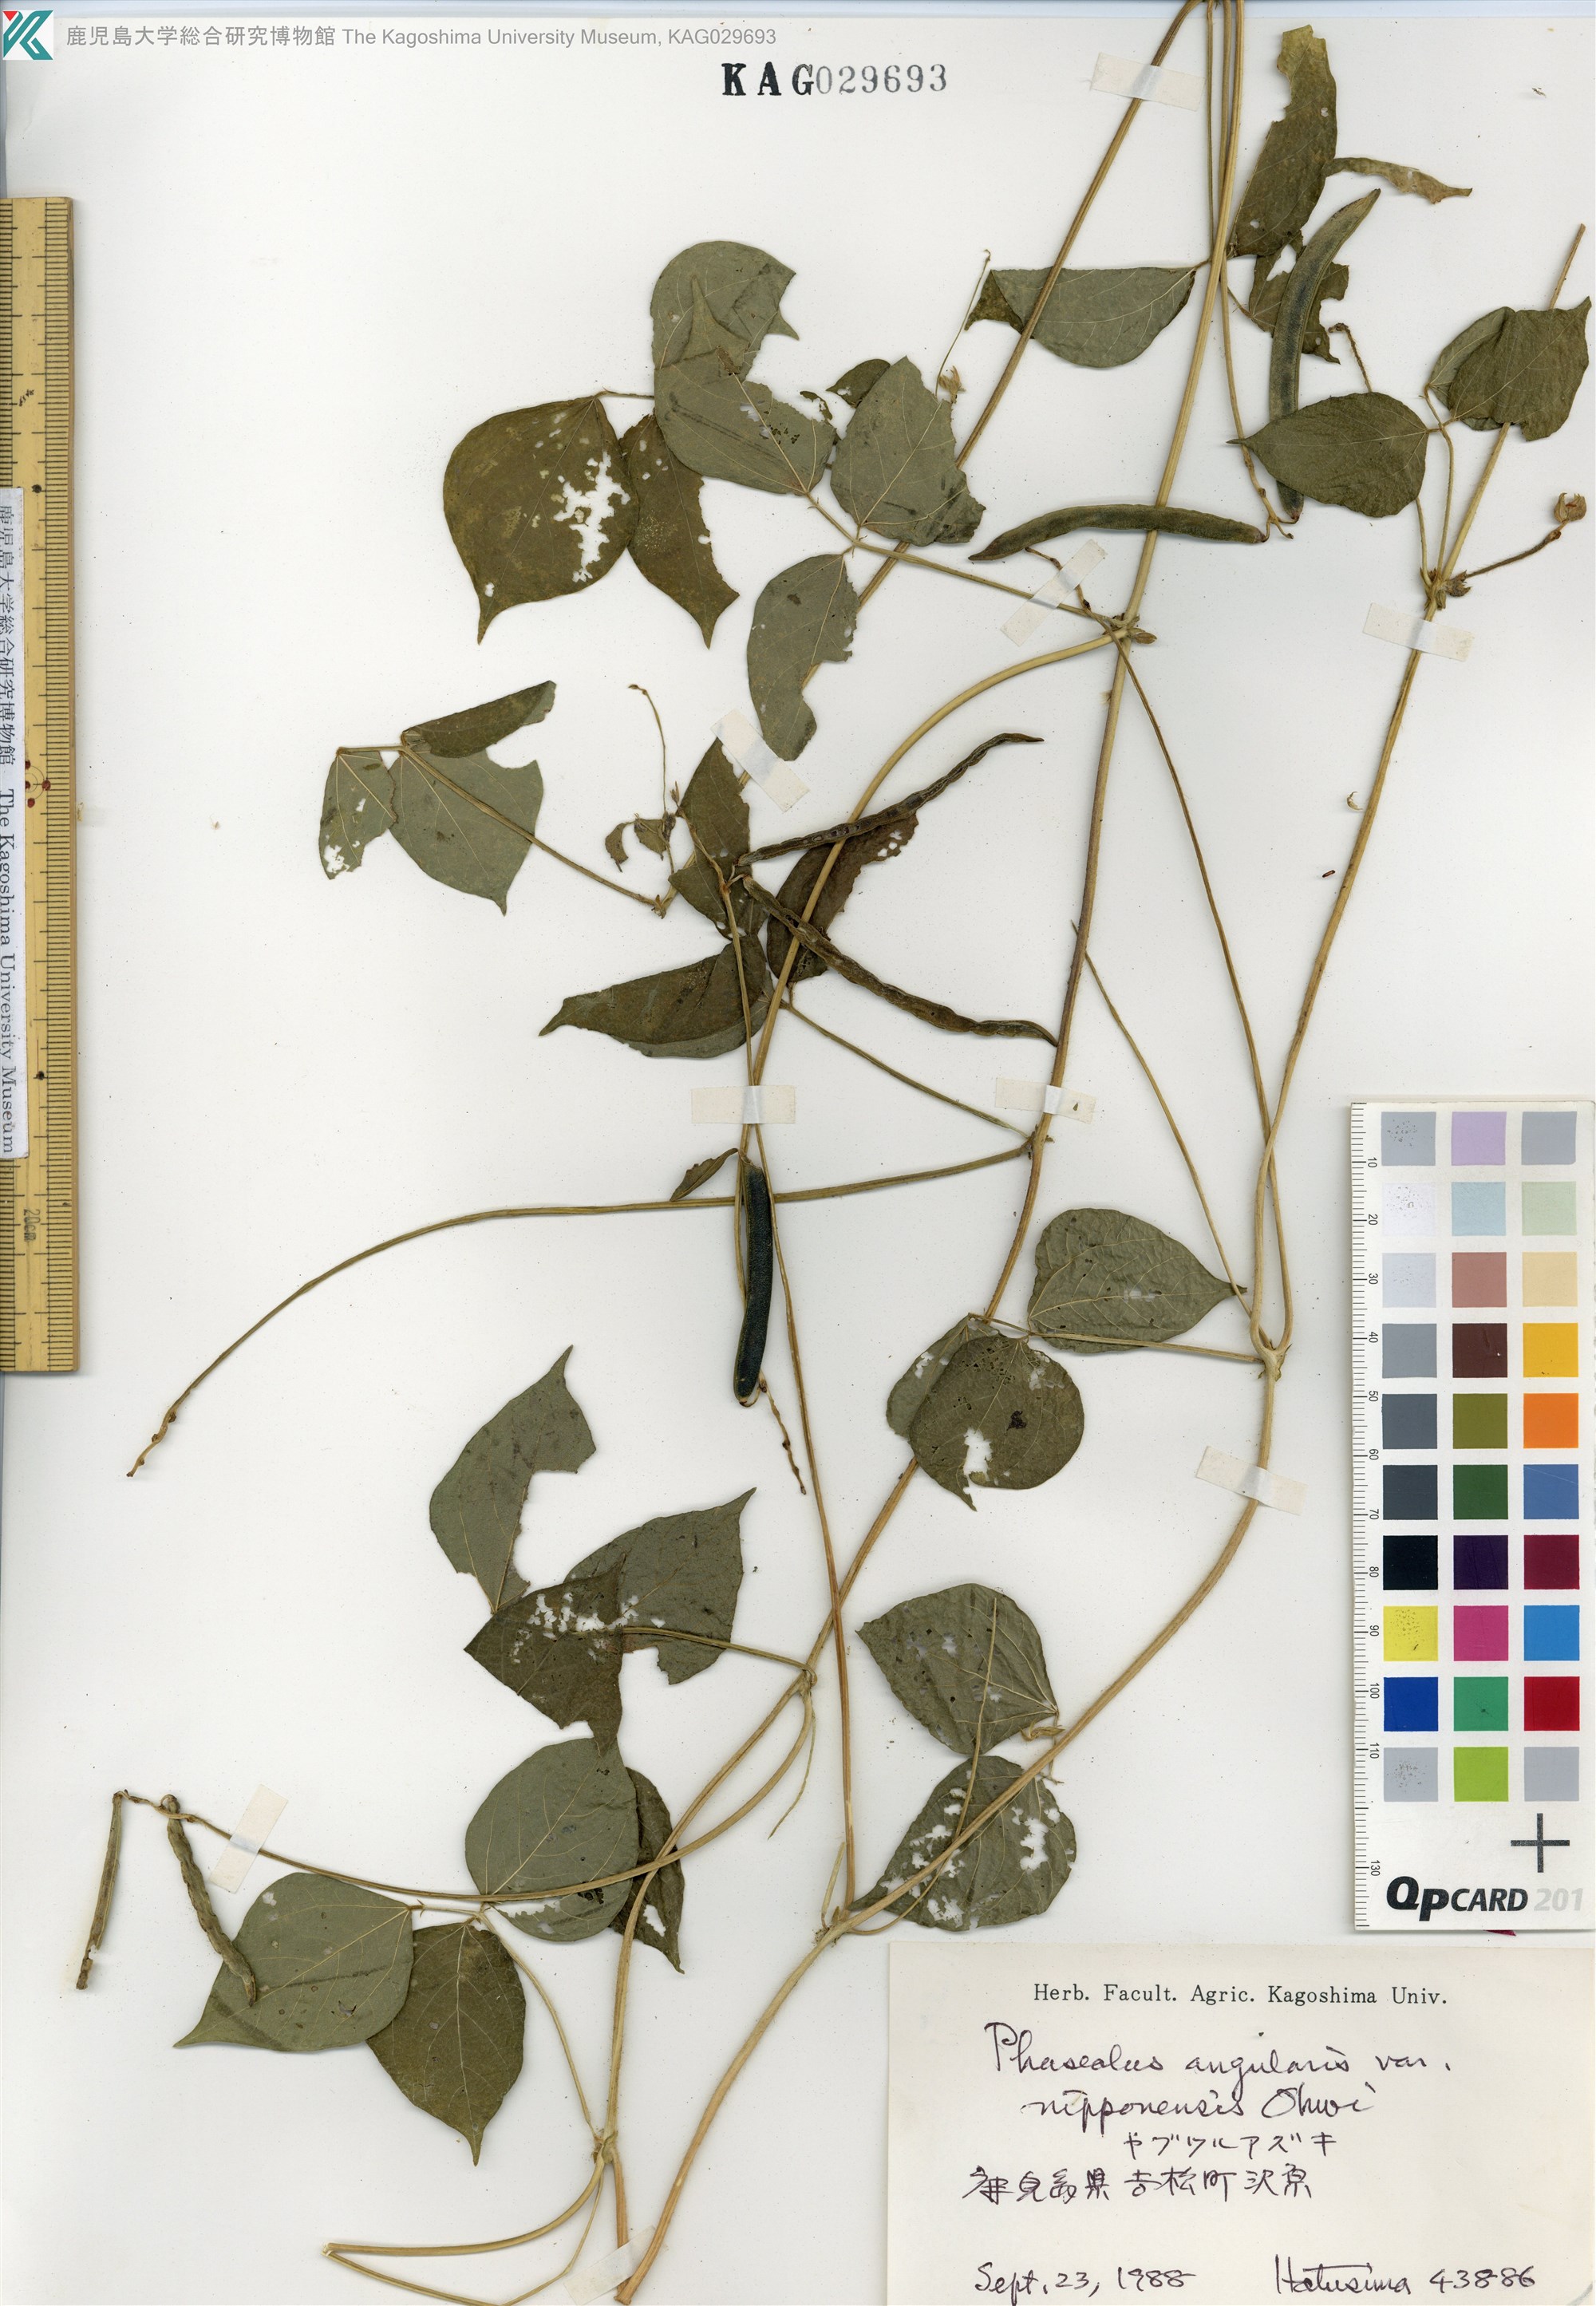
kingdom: Plantae
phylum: Tracheophyta
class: Magnoliopsida
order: Fabales
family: Fabaceae
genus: Vigna
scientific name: Vigna angularis
